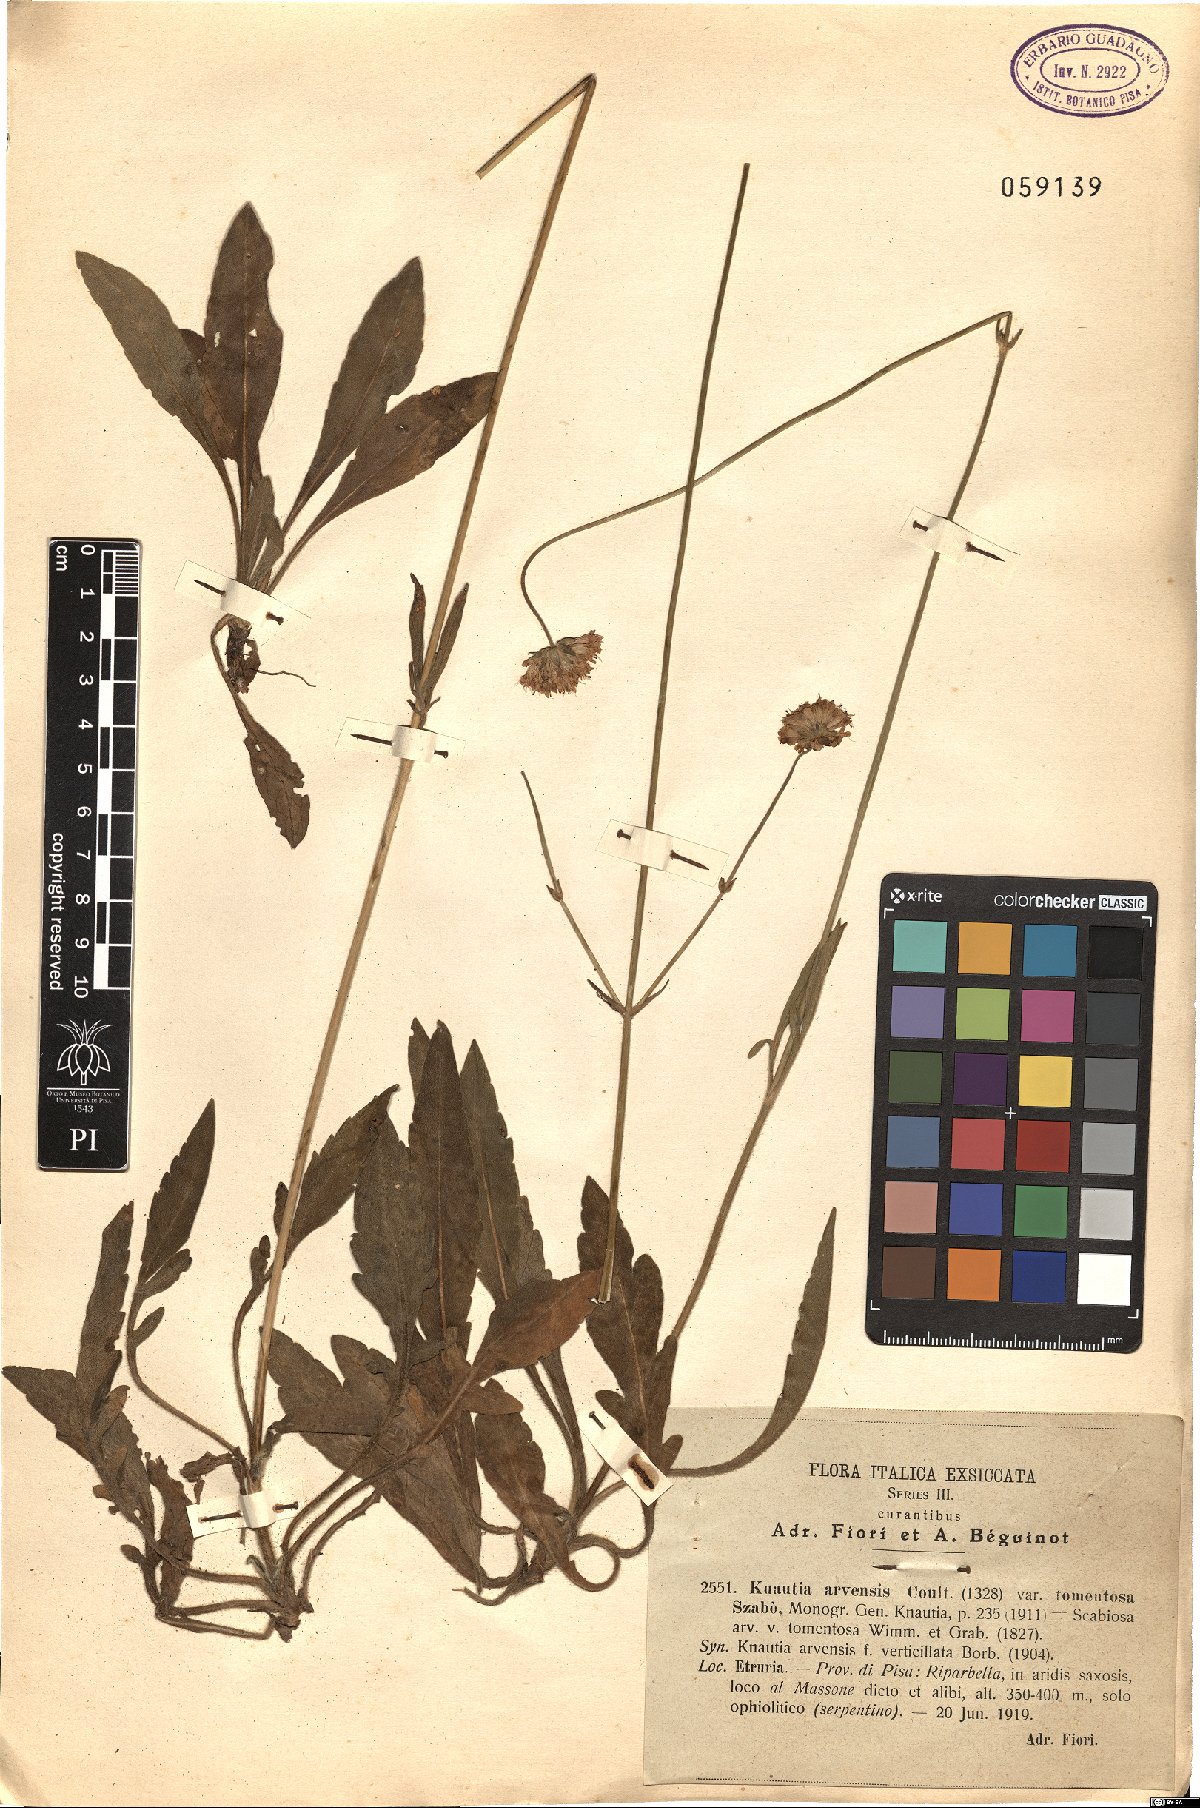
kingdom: Plantae
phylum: Tracheophyta
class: Magnoliopsida
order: Dipsacales
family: Caprifoliaceae
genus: Knautia
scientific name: Knautia kitaibelii
